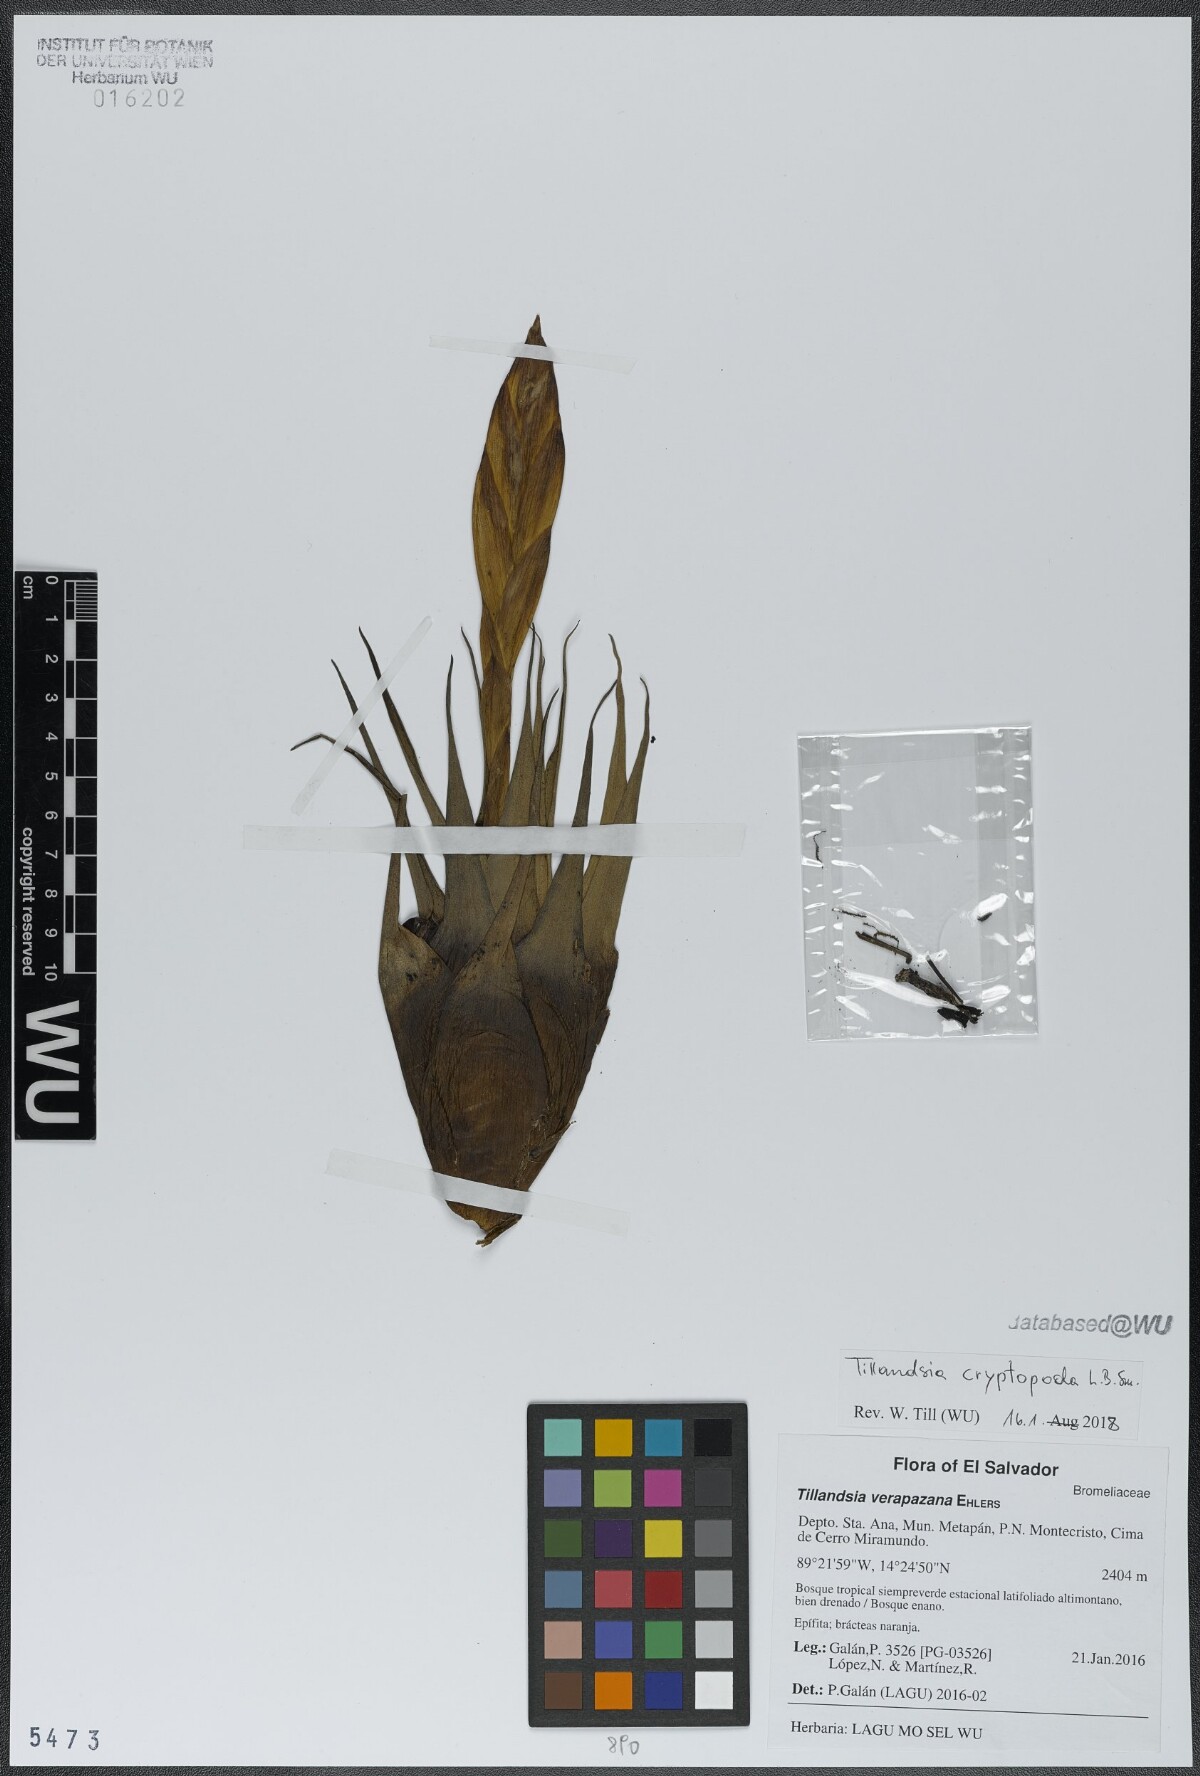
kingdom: Plantae
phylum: Tracheophyta
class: Liliopsida
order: Poales
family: Bromeliaceae
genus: Tillandsia
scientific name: Tillandsia cryptopoda
